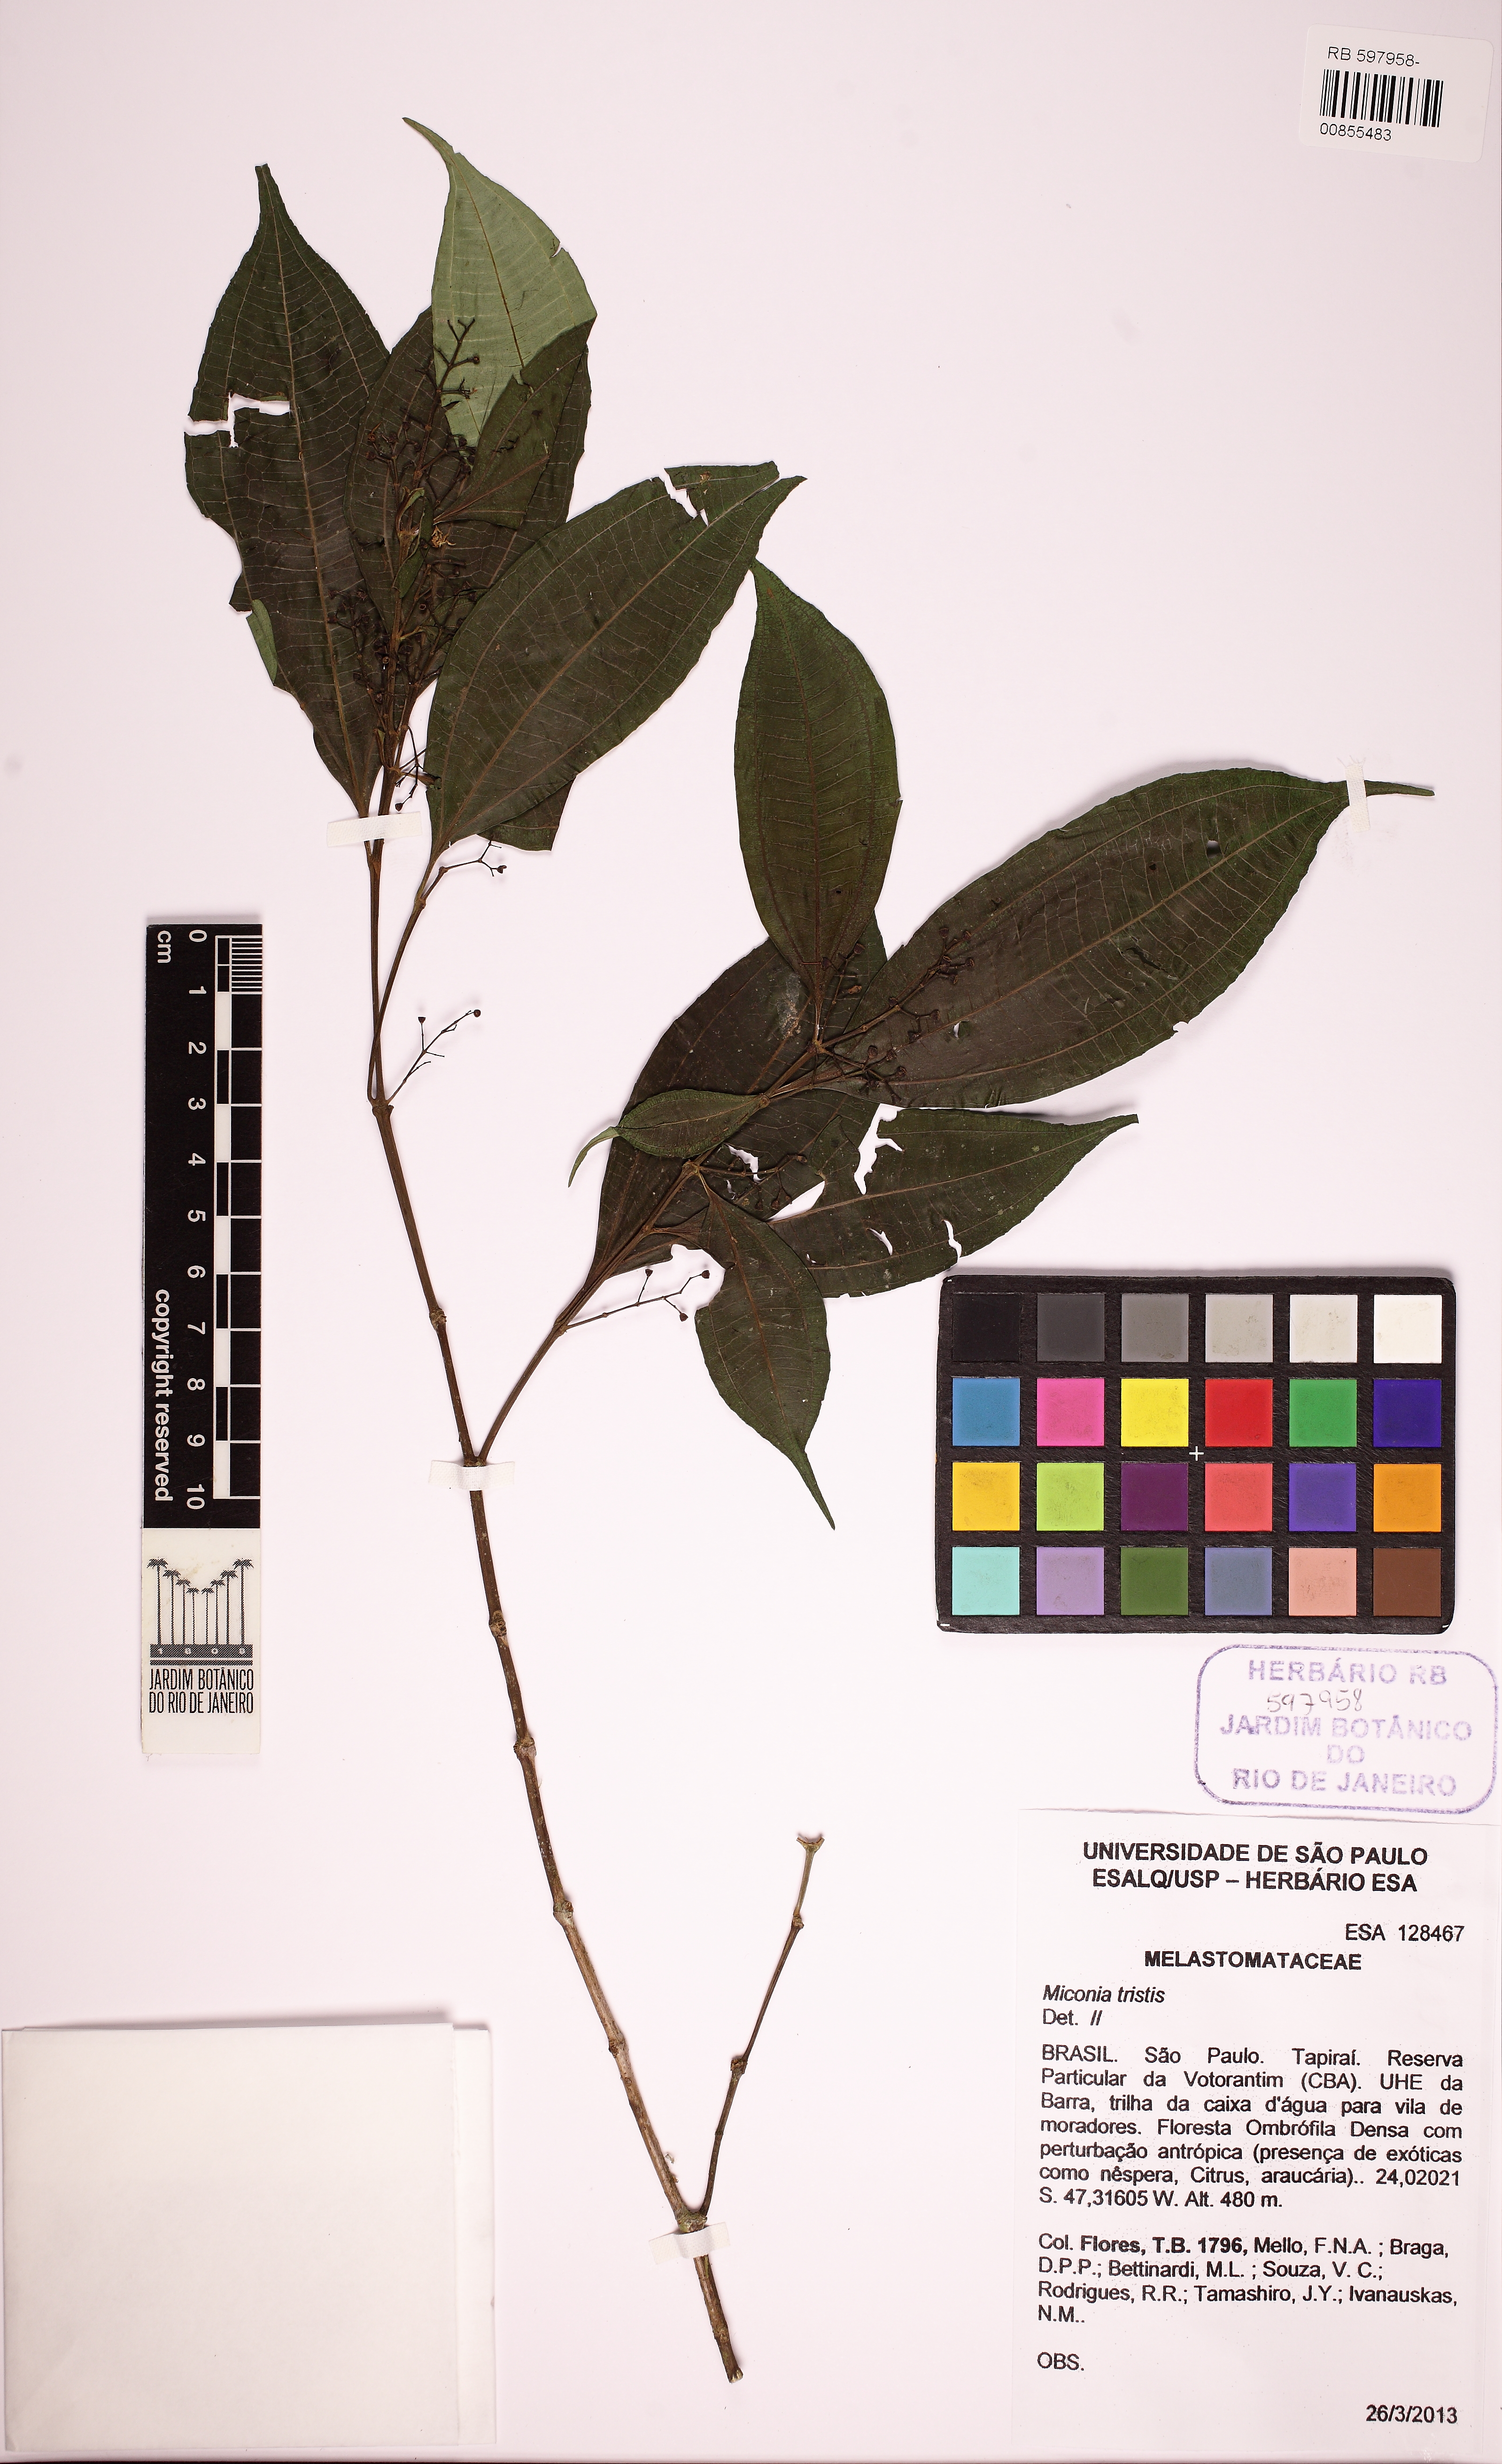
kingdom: Plantae
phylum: Tracheophyta
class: Magnoliopsida
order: Myrtales
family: Melastomataceae
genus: Miconia
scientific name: Miconia tristis
